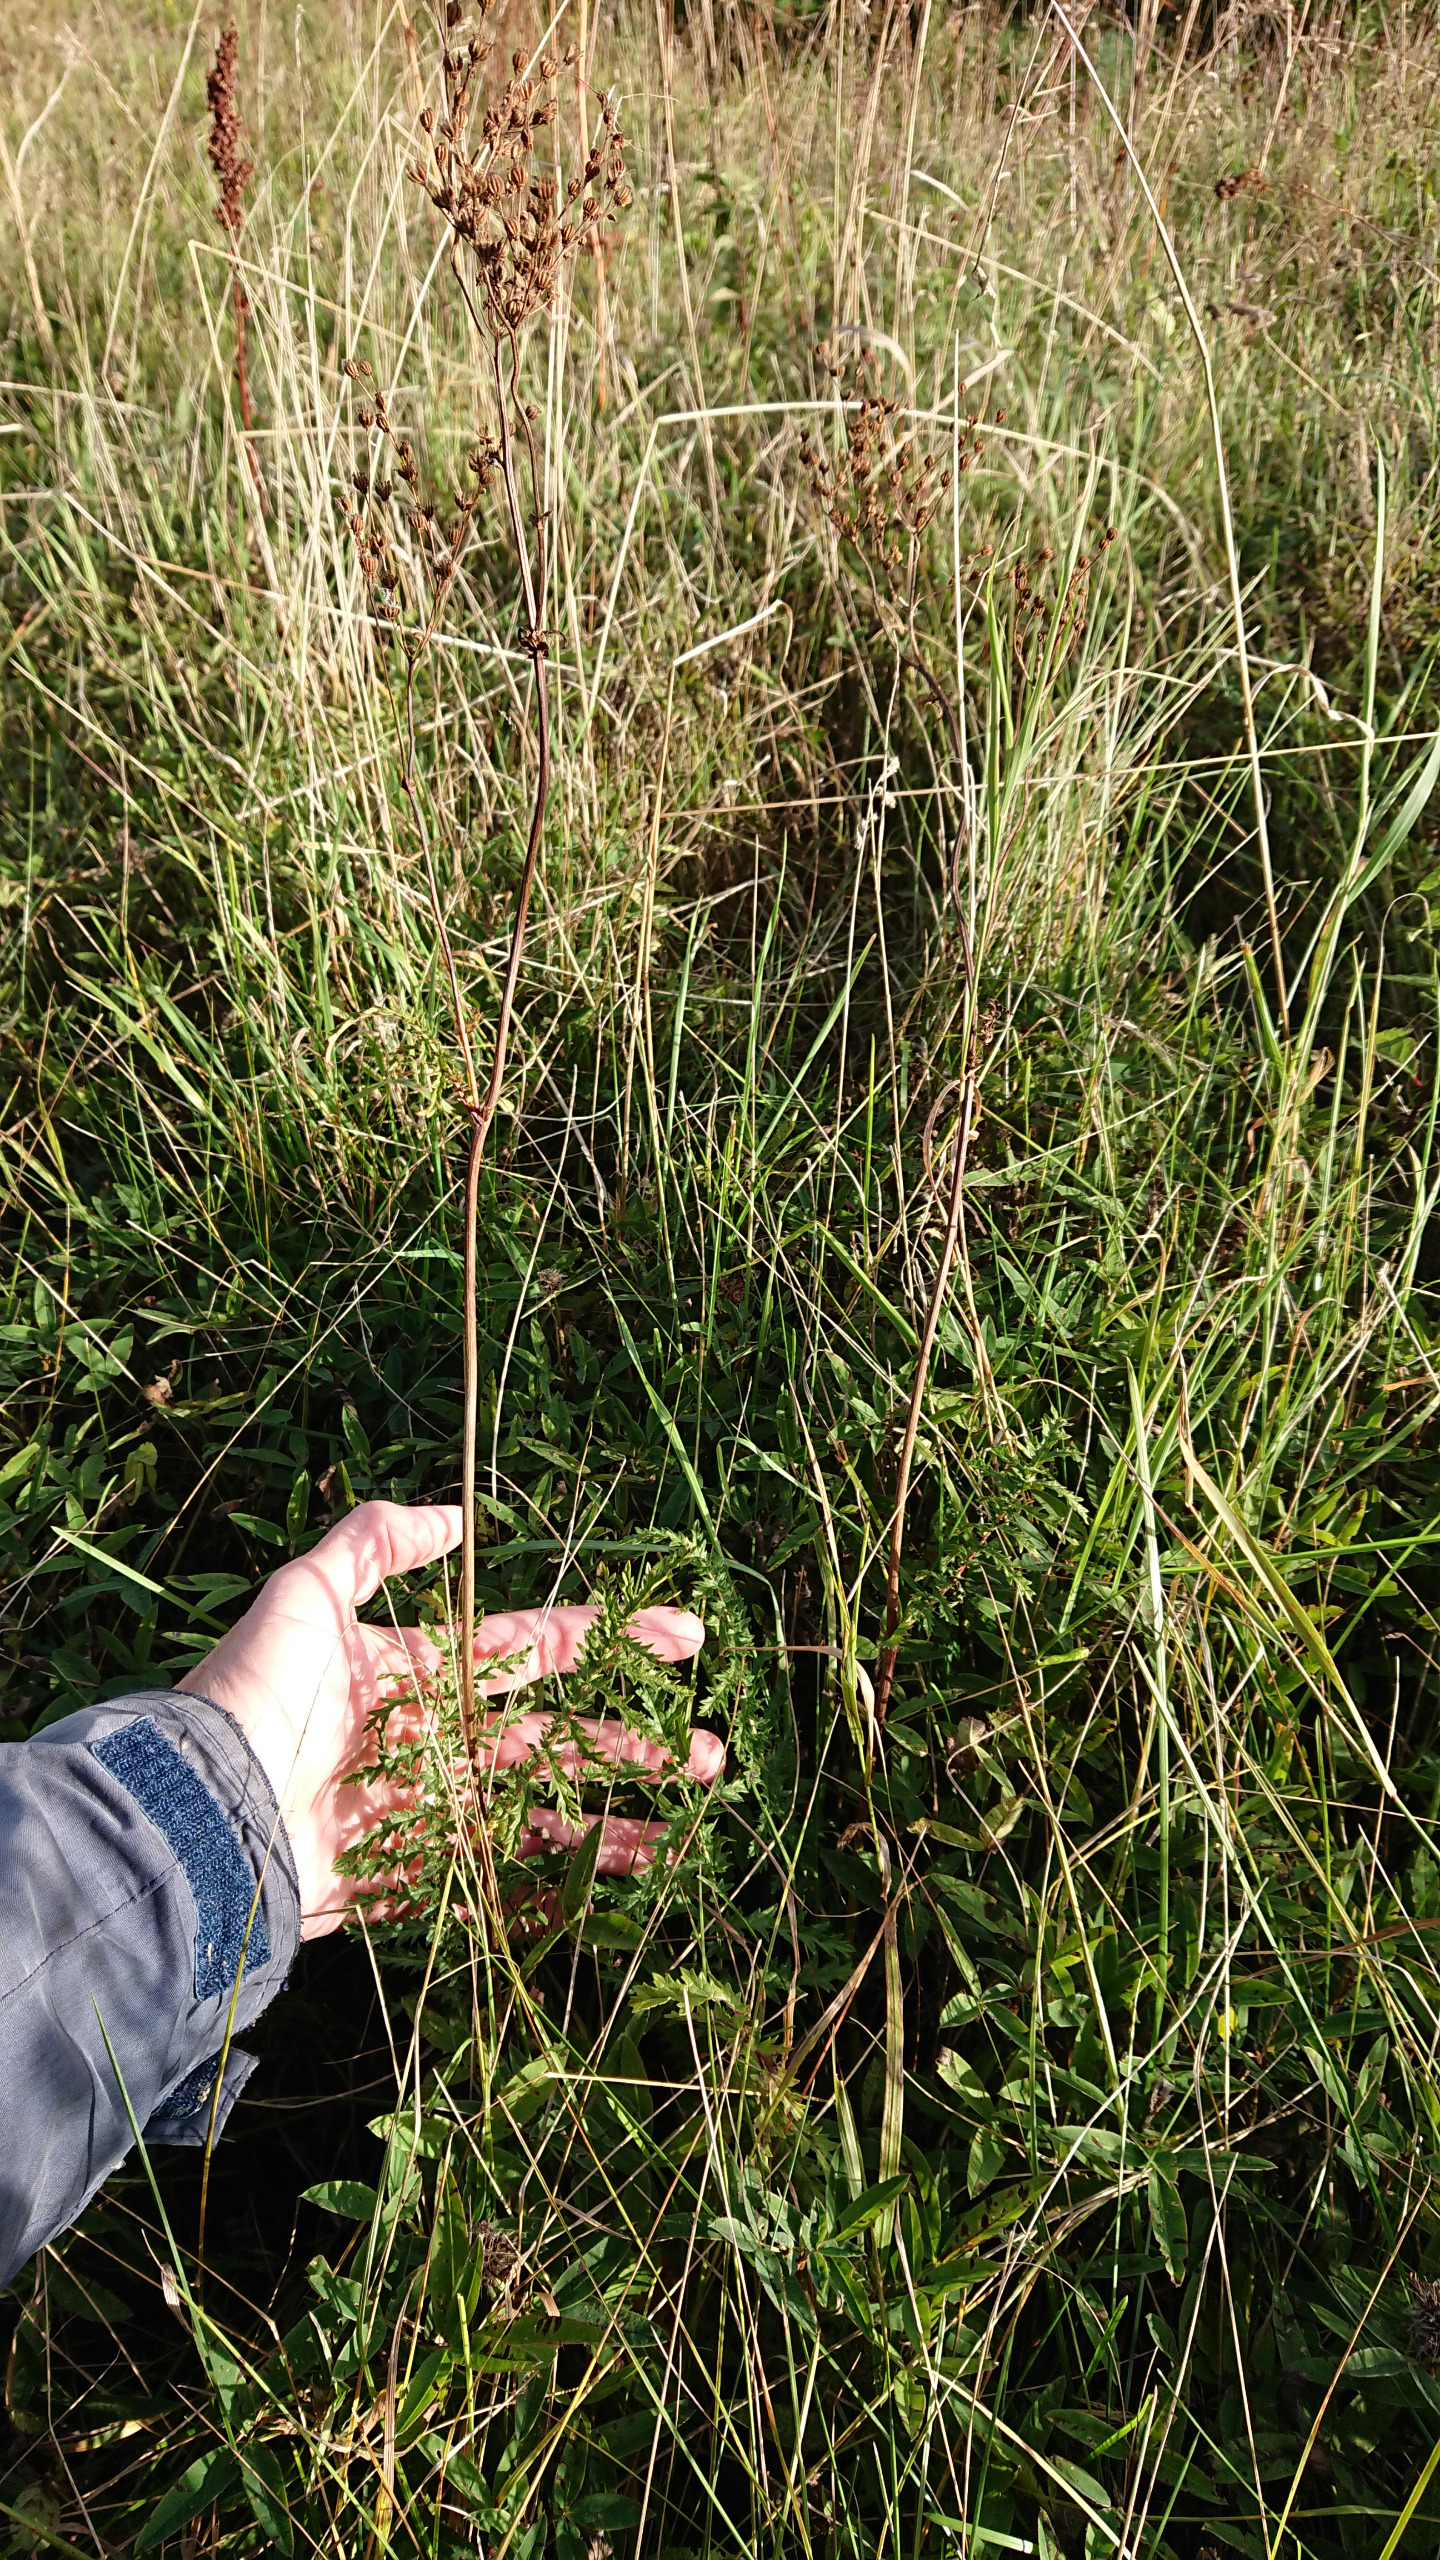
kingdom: Plantae
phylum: Tracheophyta
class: Magnoliopsida
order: Rosales
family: Rosaceae
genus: Filipendula
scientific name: Filipendula vulgaris
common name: Knoldet mjødurt
